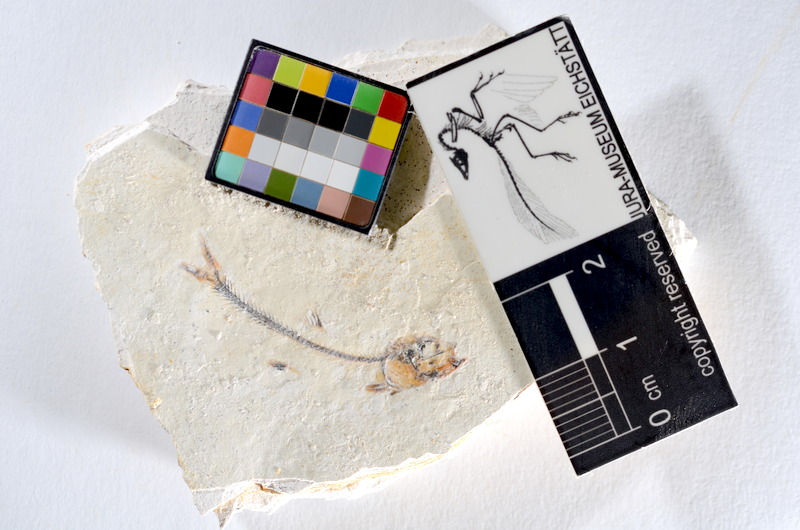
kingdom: Animalia
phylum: Chordata
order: Salmoniformes
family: Orthogonikleithridae
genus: Orthogonikleithrus
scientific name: Orthogonikleithrus hoelli
